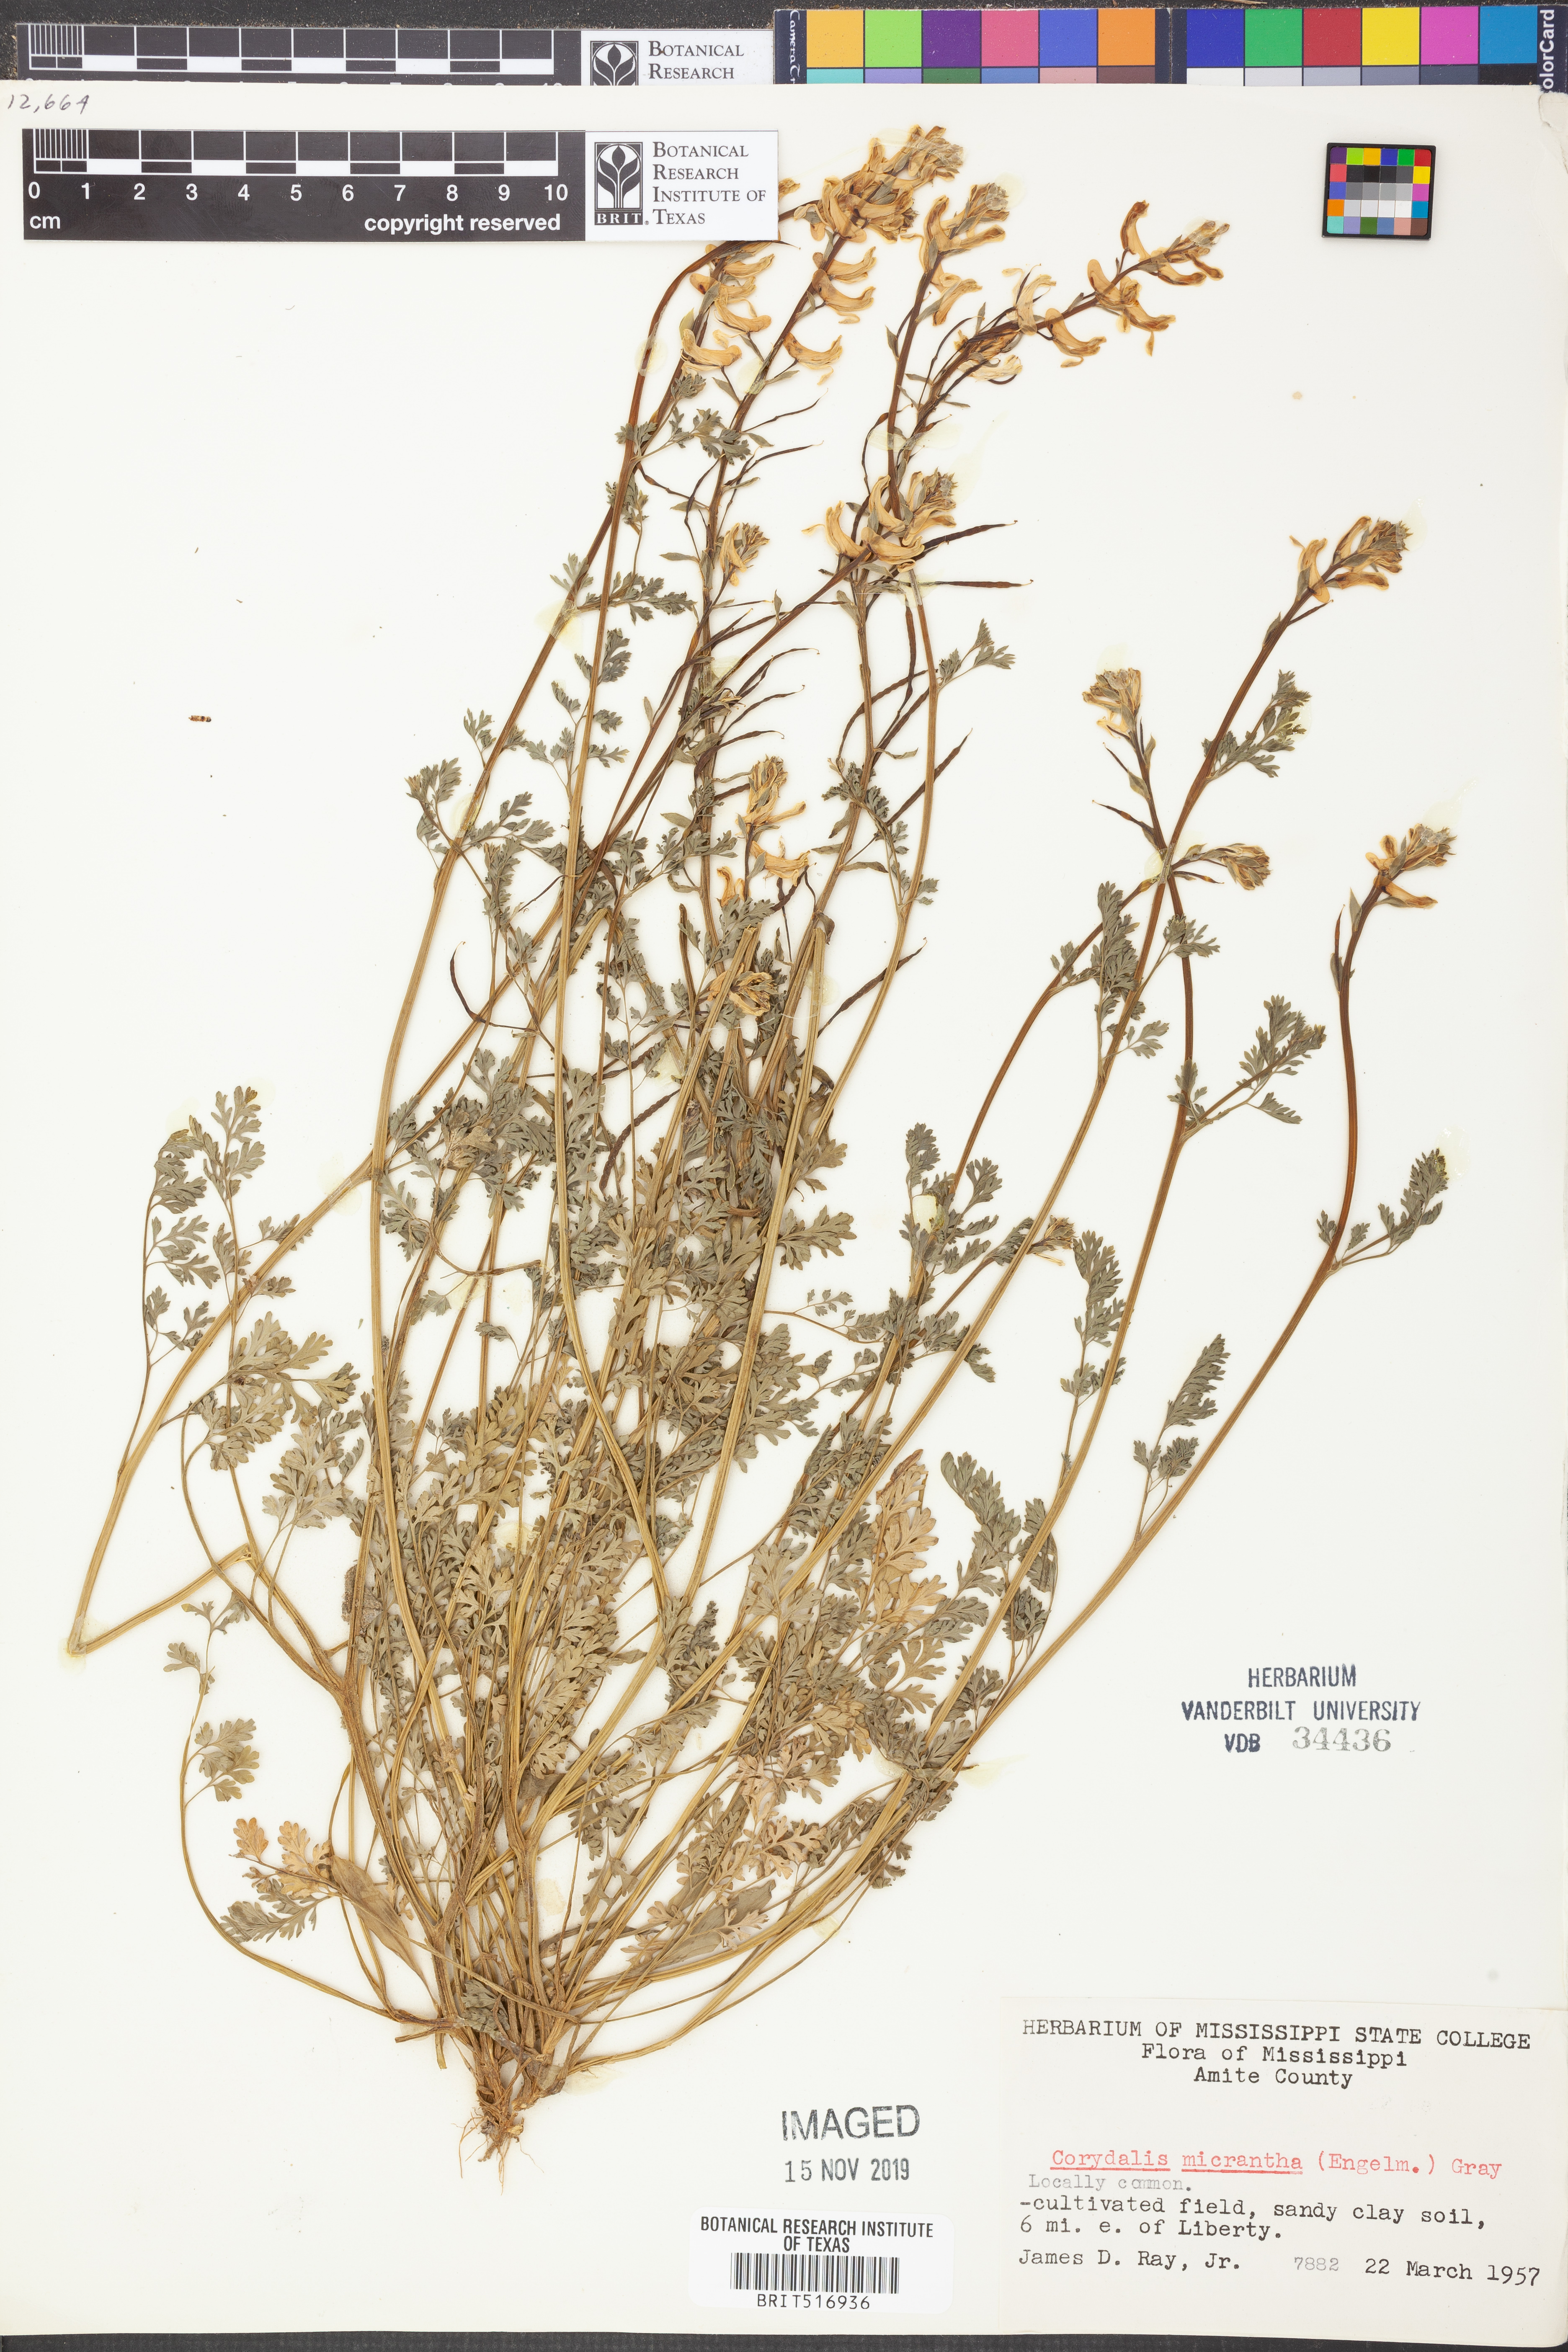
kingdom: Plantae
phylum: Tracheophyta
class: Magnoliopsida
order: Ranunculales
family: Papaveraceae
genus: Corydalis
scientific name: Corydalis micrantha
